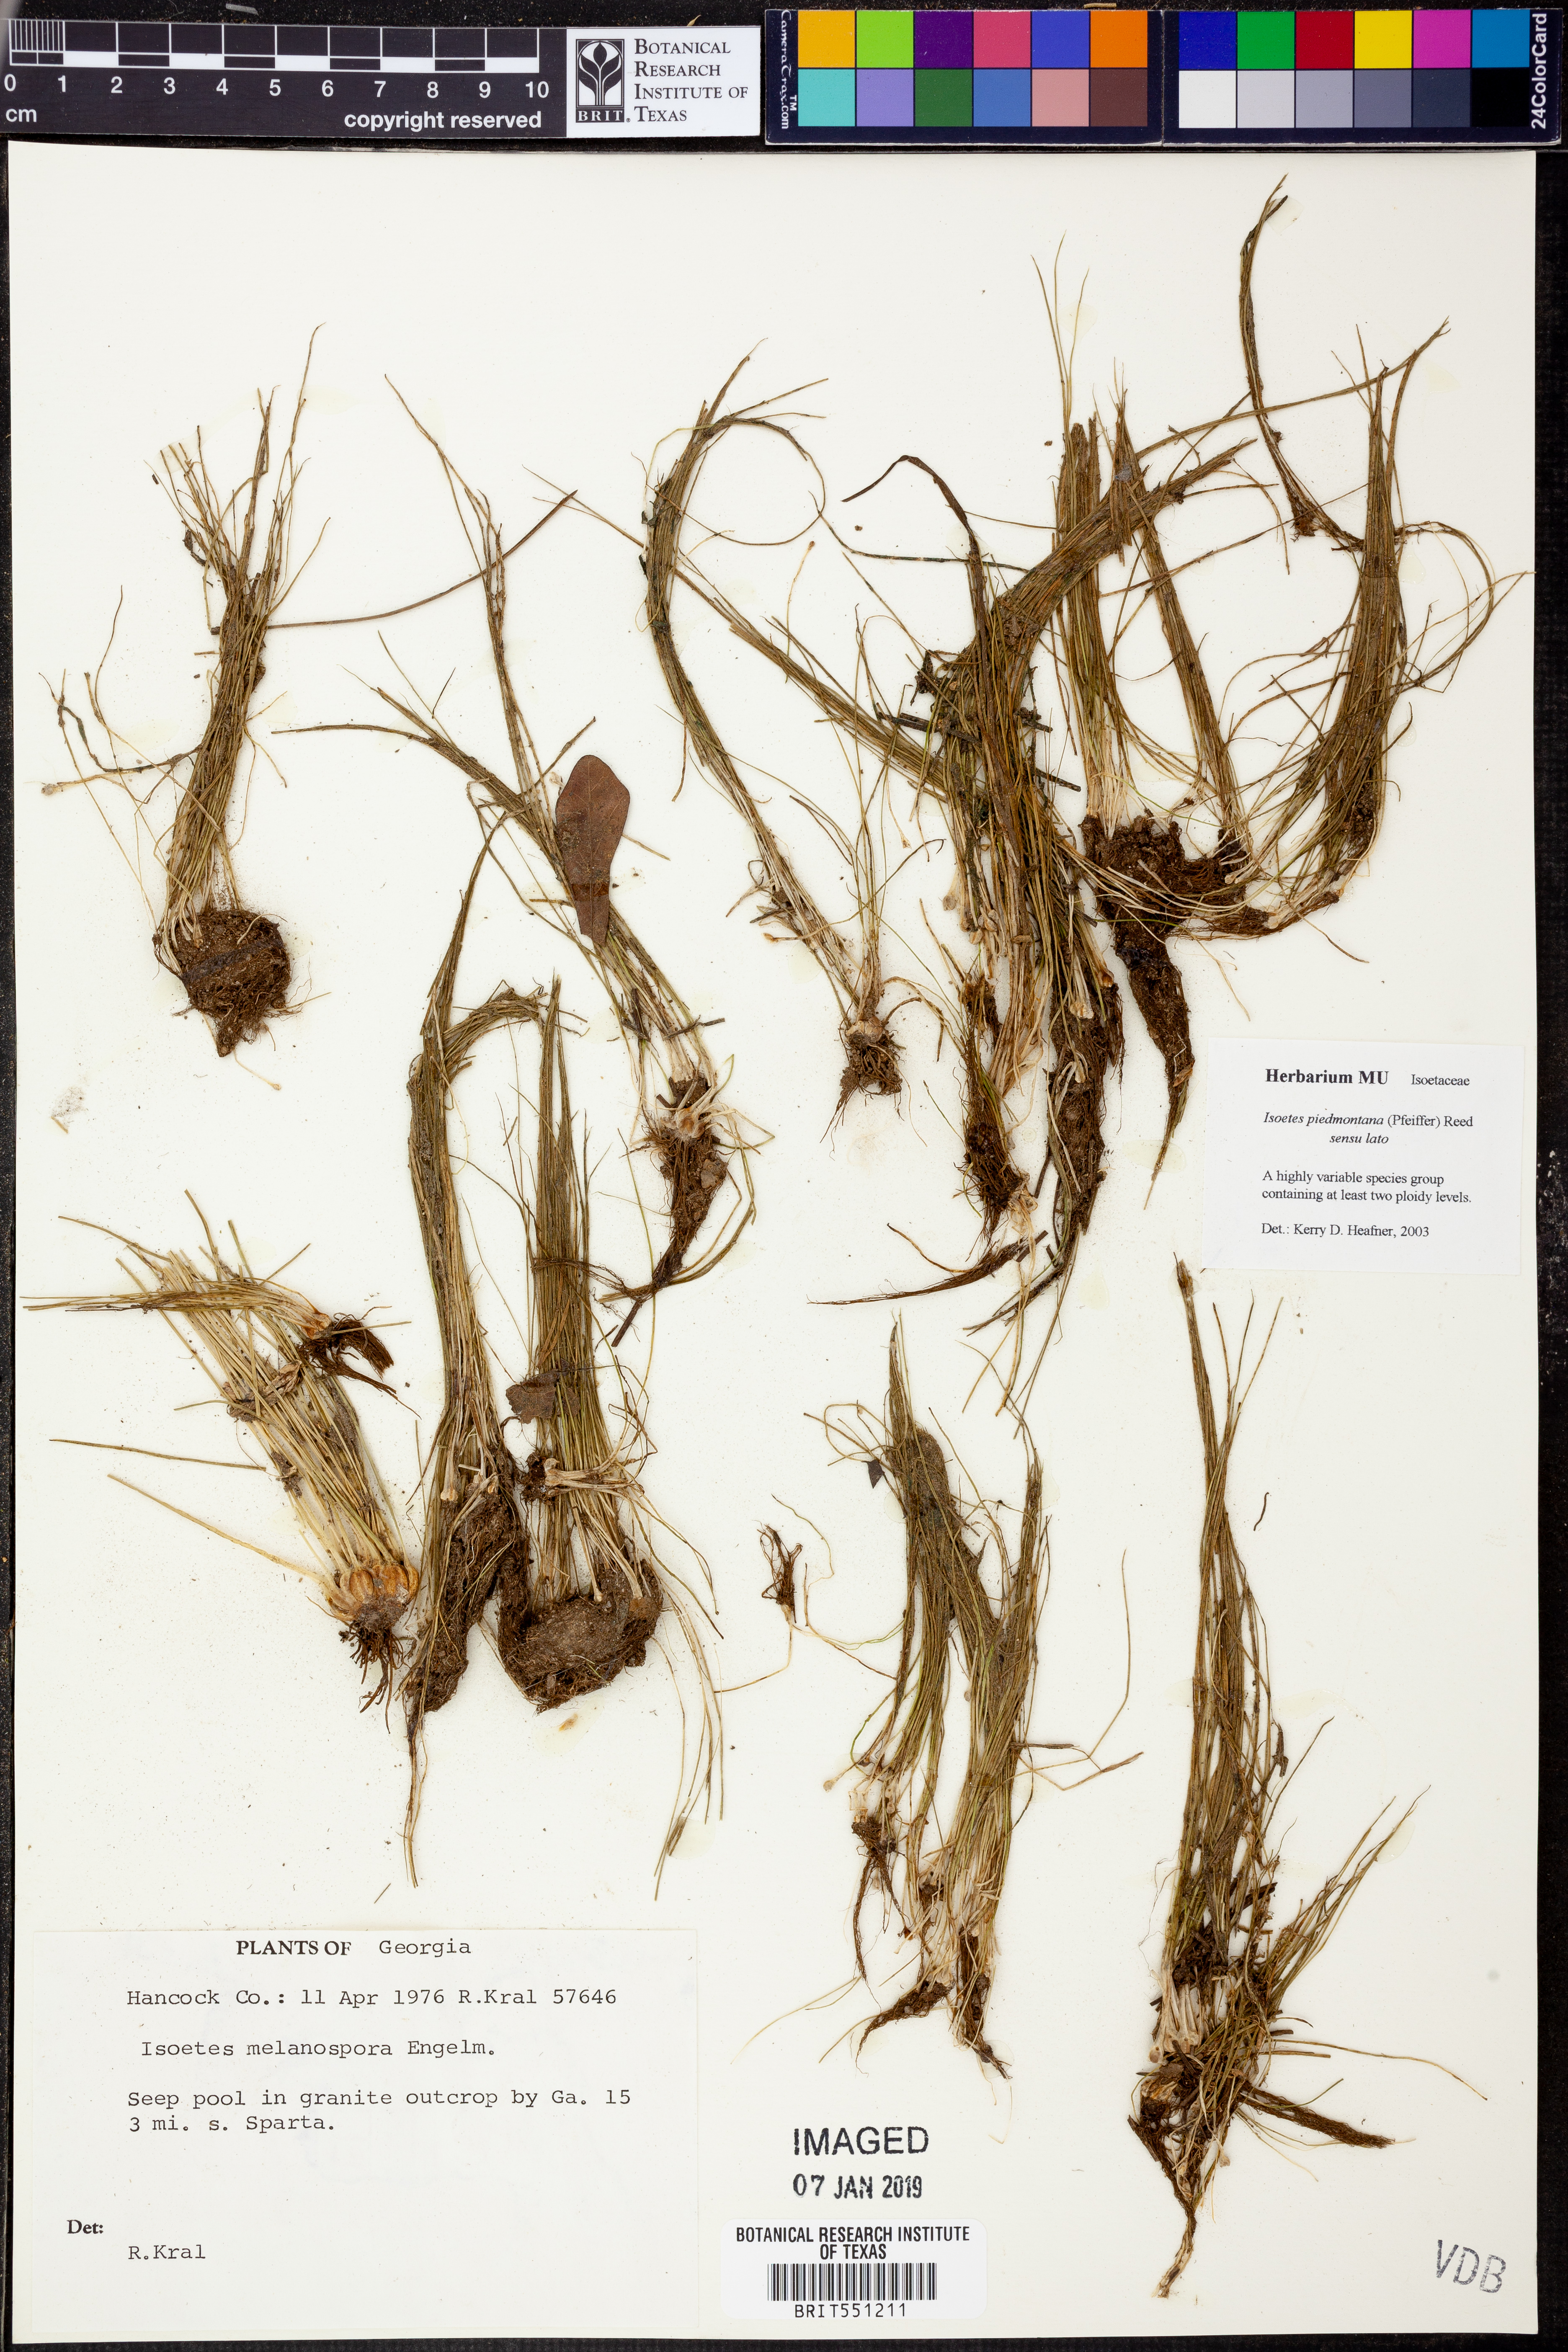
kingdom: Plantae
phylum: Tracheophyta
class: Lycopodiopsida
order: Isoetales
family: Isoetaceae
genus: Isoetes
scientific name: Isoetes virginica
